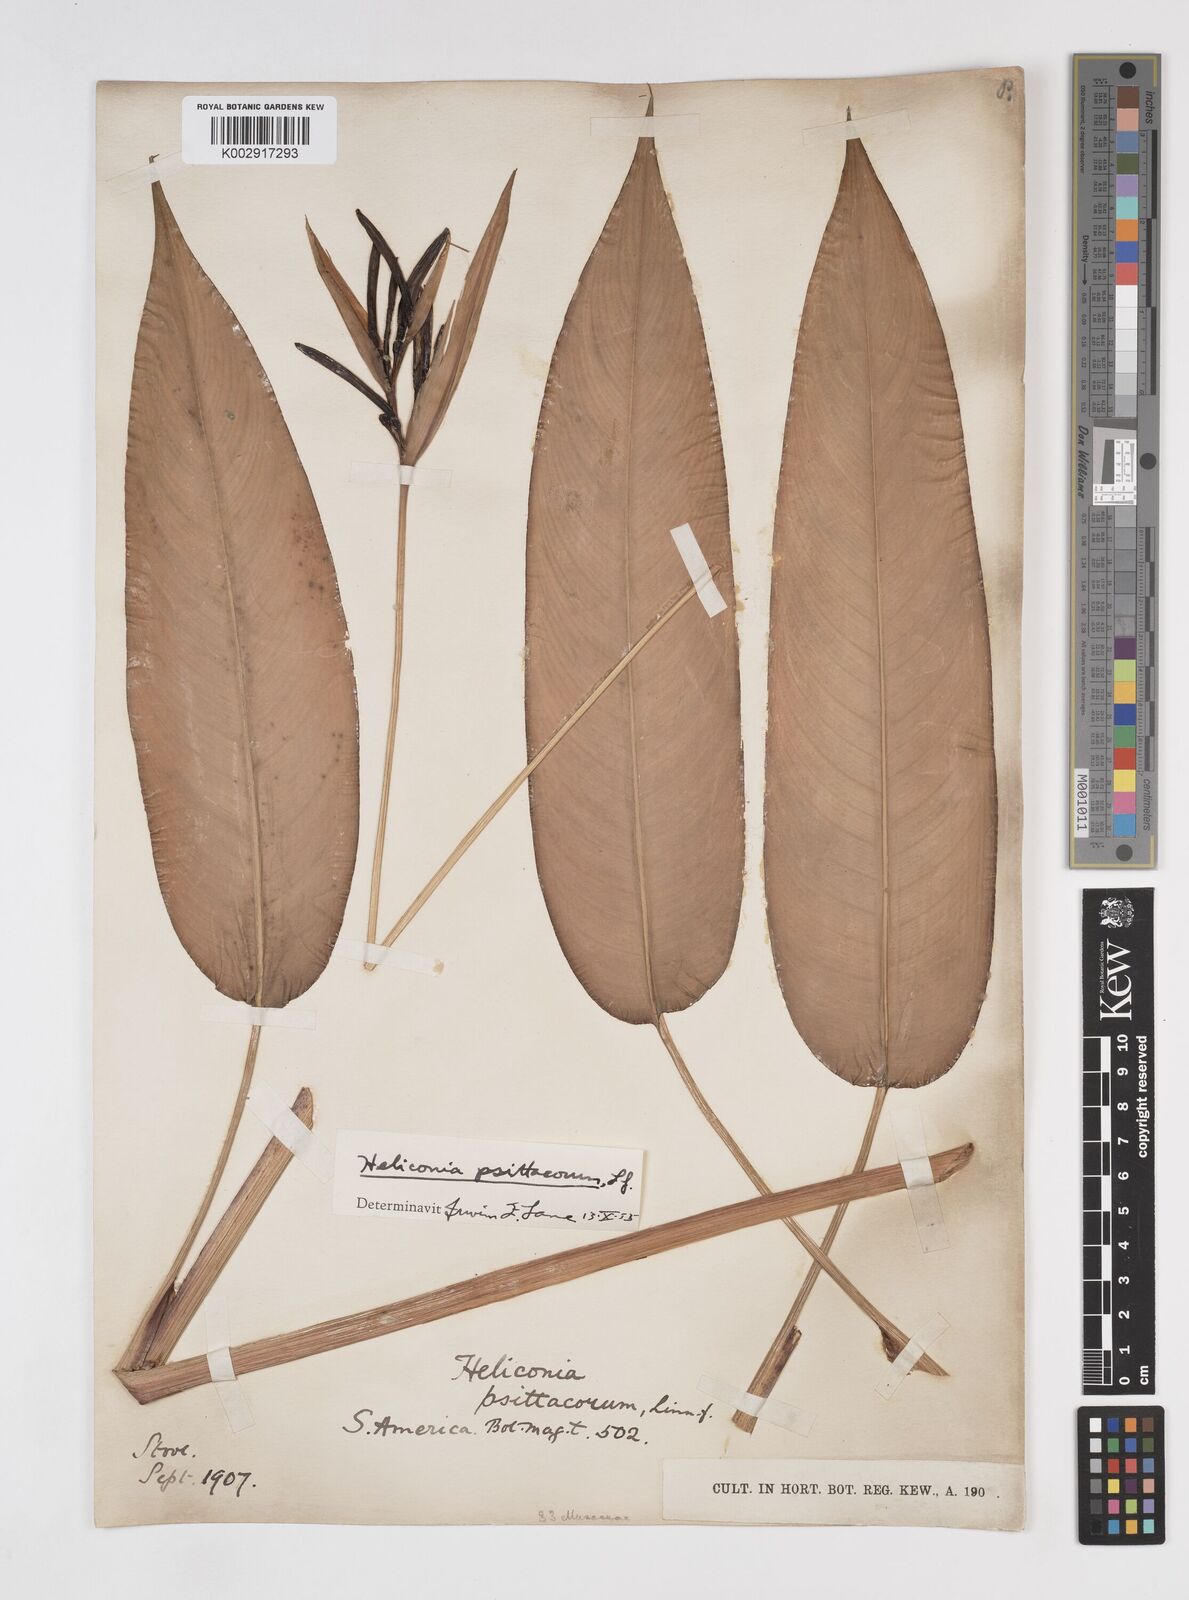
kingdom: Plantae
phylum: Tracheophyta
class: Liliopsida
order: Zingiberales
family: Heliconiaceae
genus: Heliconia
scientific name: Heliconia psittacorum
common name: Parrot's-flower
